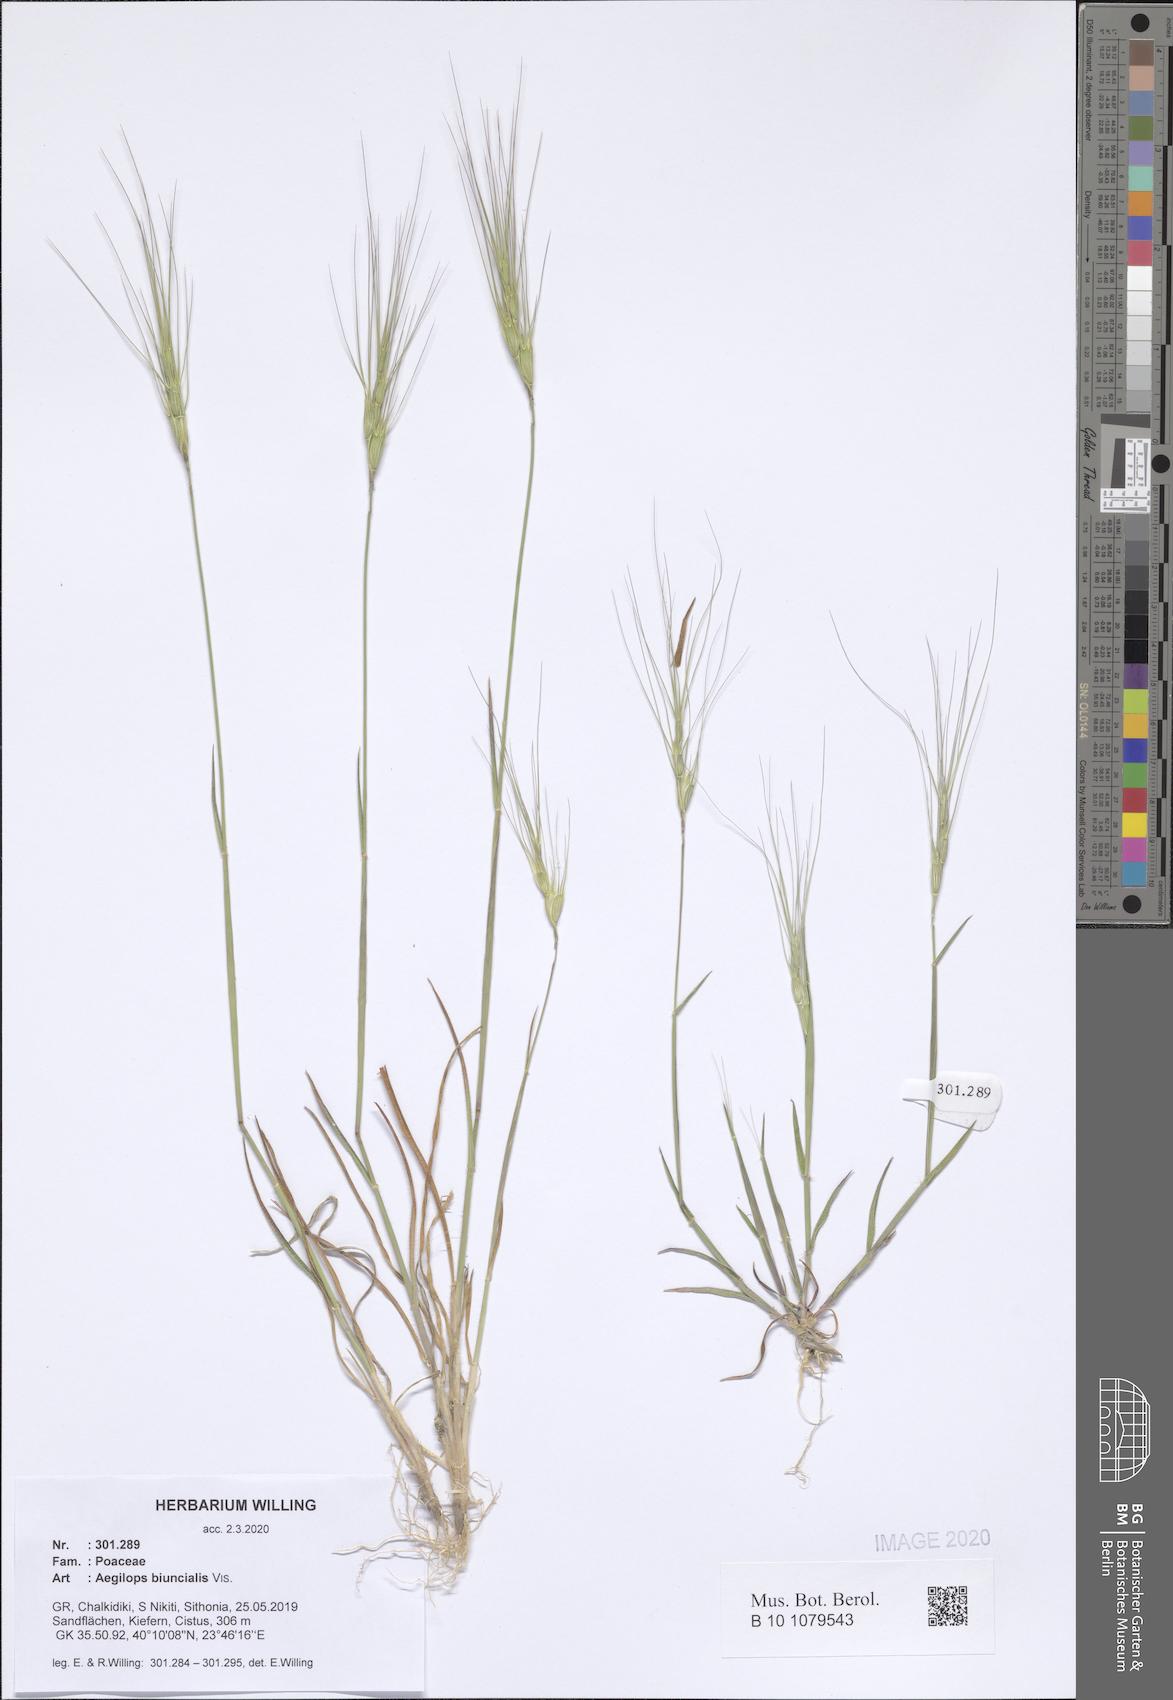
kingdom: Plantae
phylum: Tracheophyta
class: Liliopsida
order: Poales
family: Poaceae
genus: Aegilops
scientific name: Aegilops biuncialis
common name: Mediterranean aegilops
